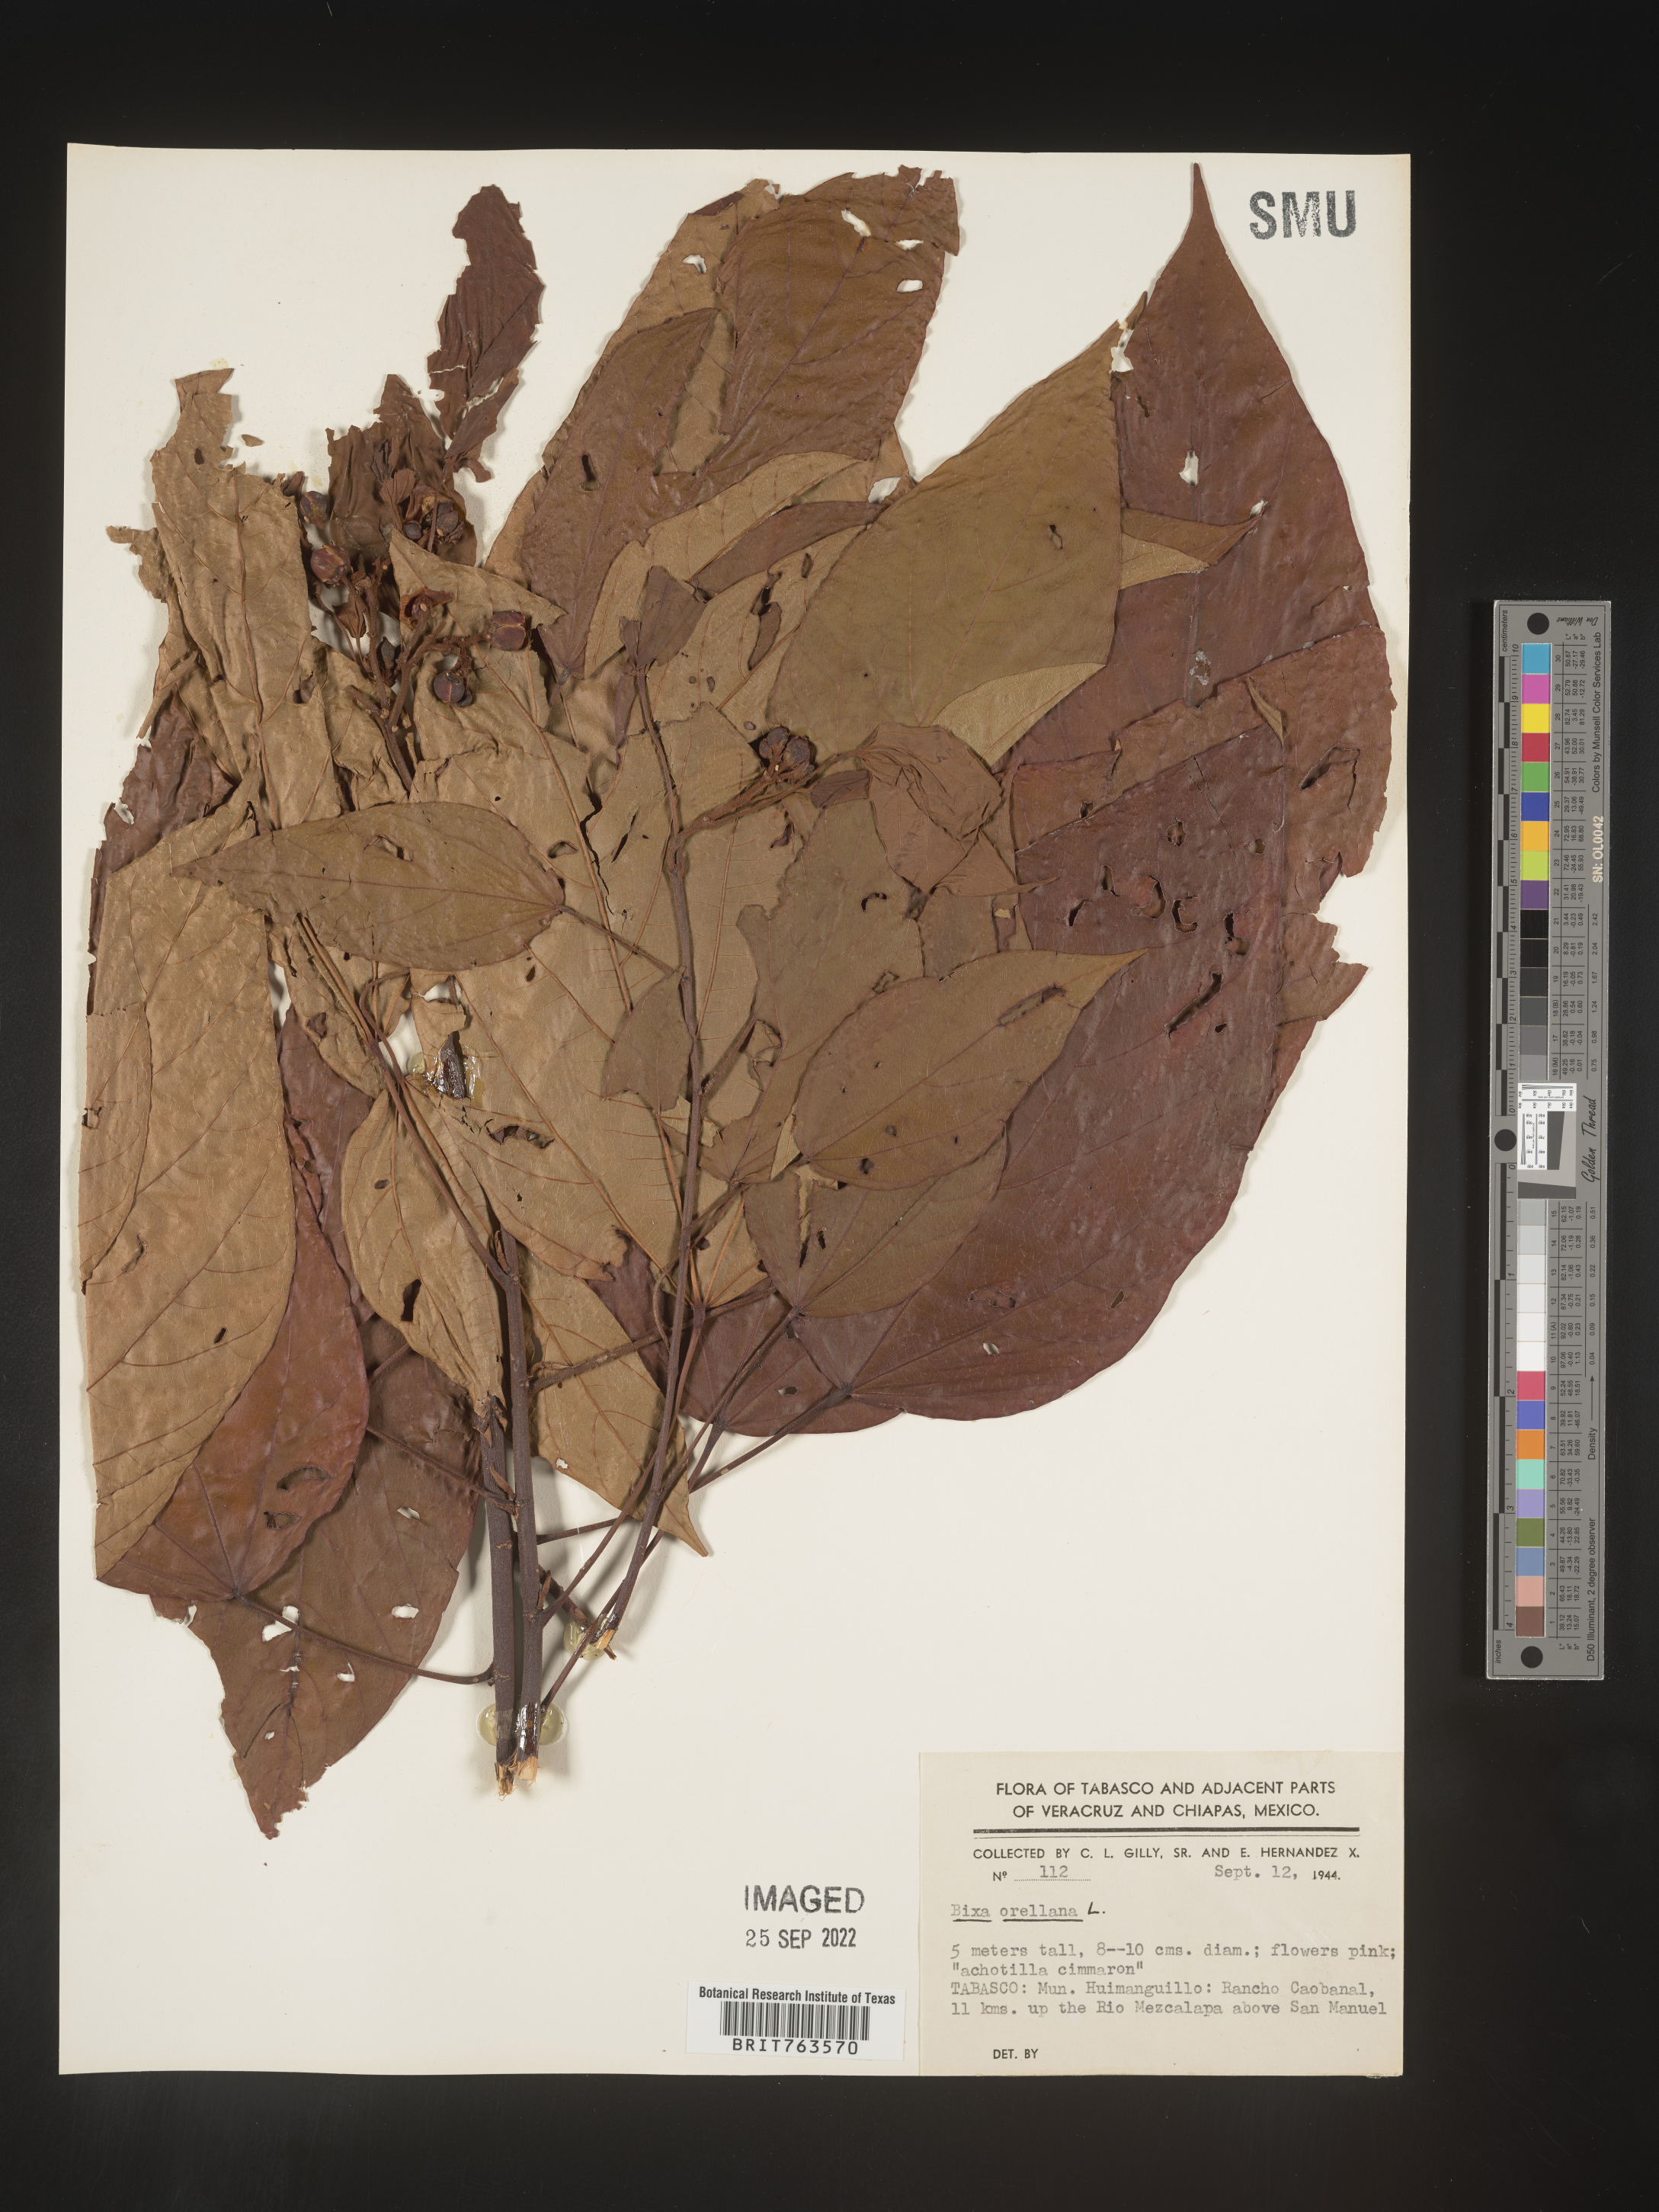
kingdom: Plantae
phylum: Tracheophyta
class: Magnoliopsida
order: Malvales
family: Bixaceae
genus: Bixa
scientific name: Bixa
